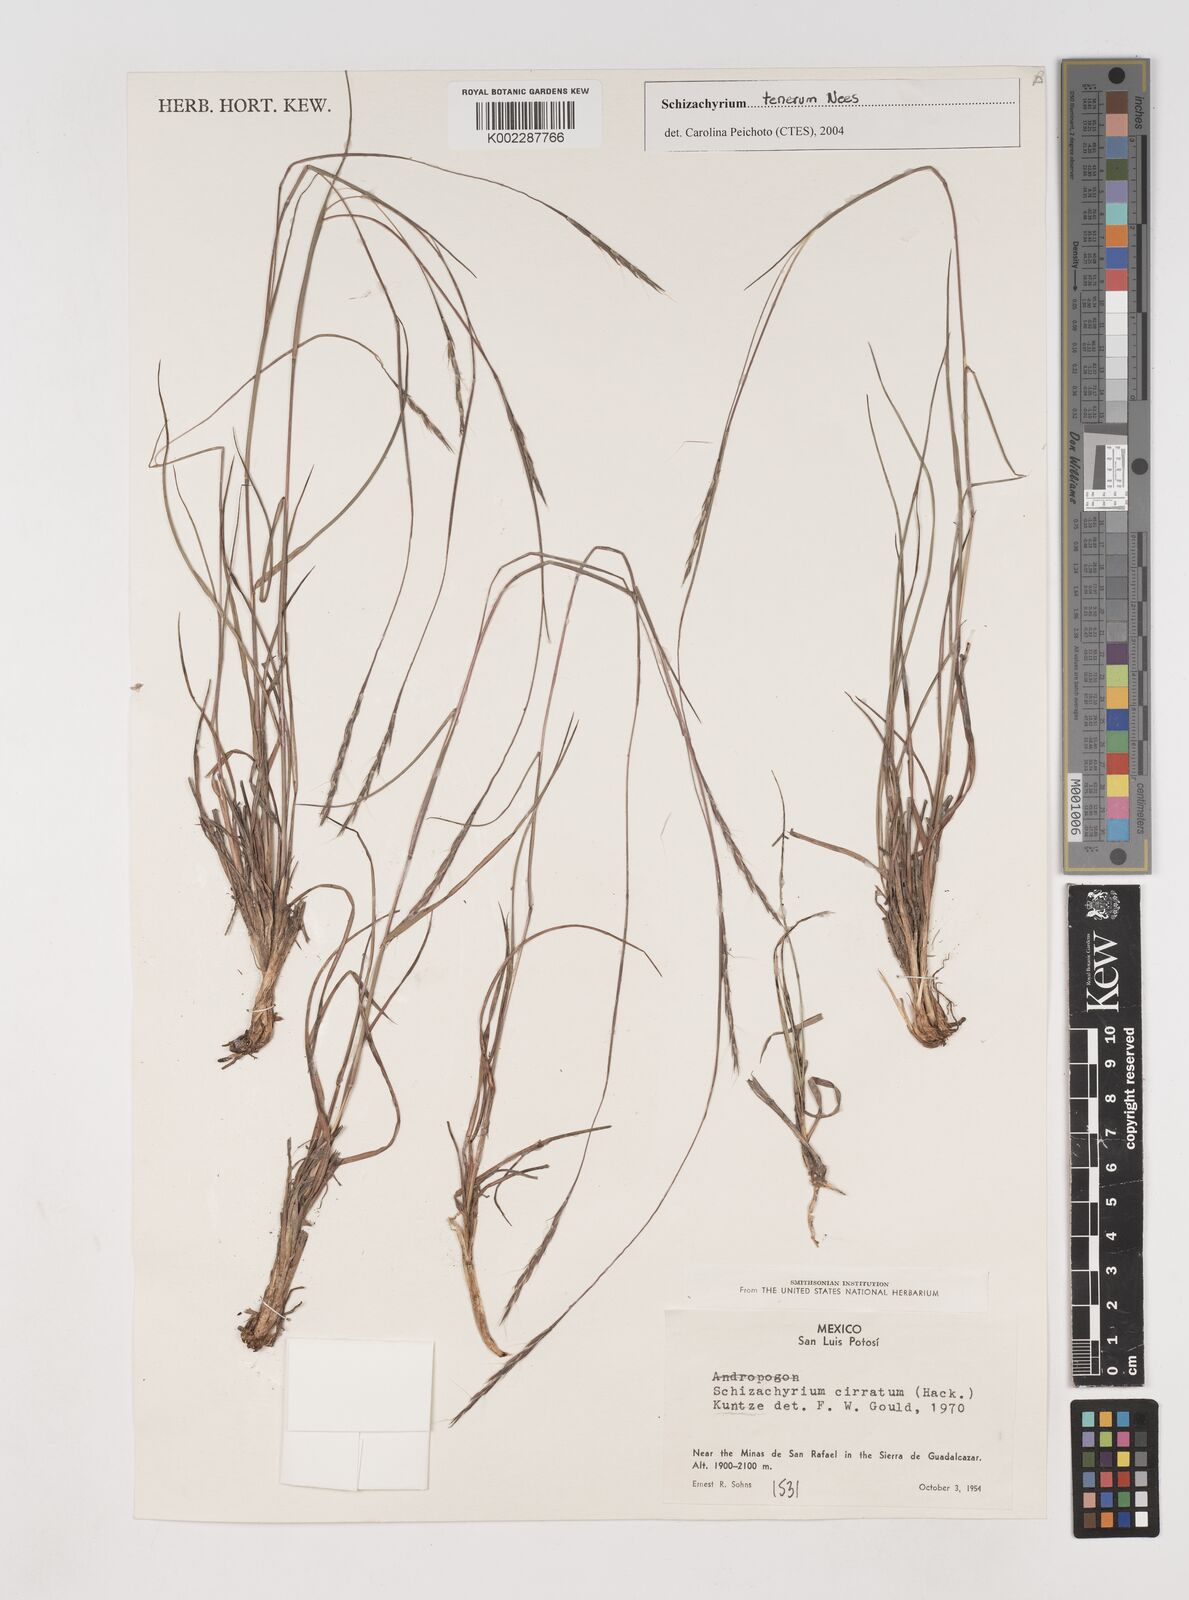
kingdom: Plantae
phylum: Tracheophyta
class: Liliopsida
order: Poales
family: Poaceae
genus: Andropogon
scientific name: Andropogon tener
